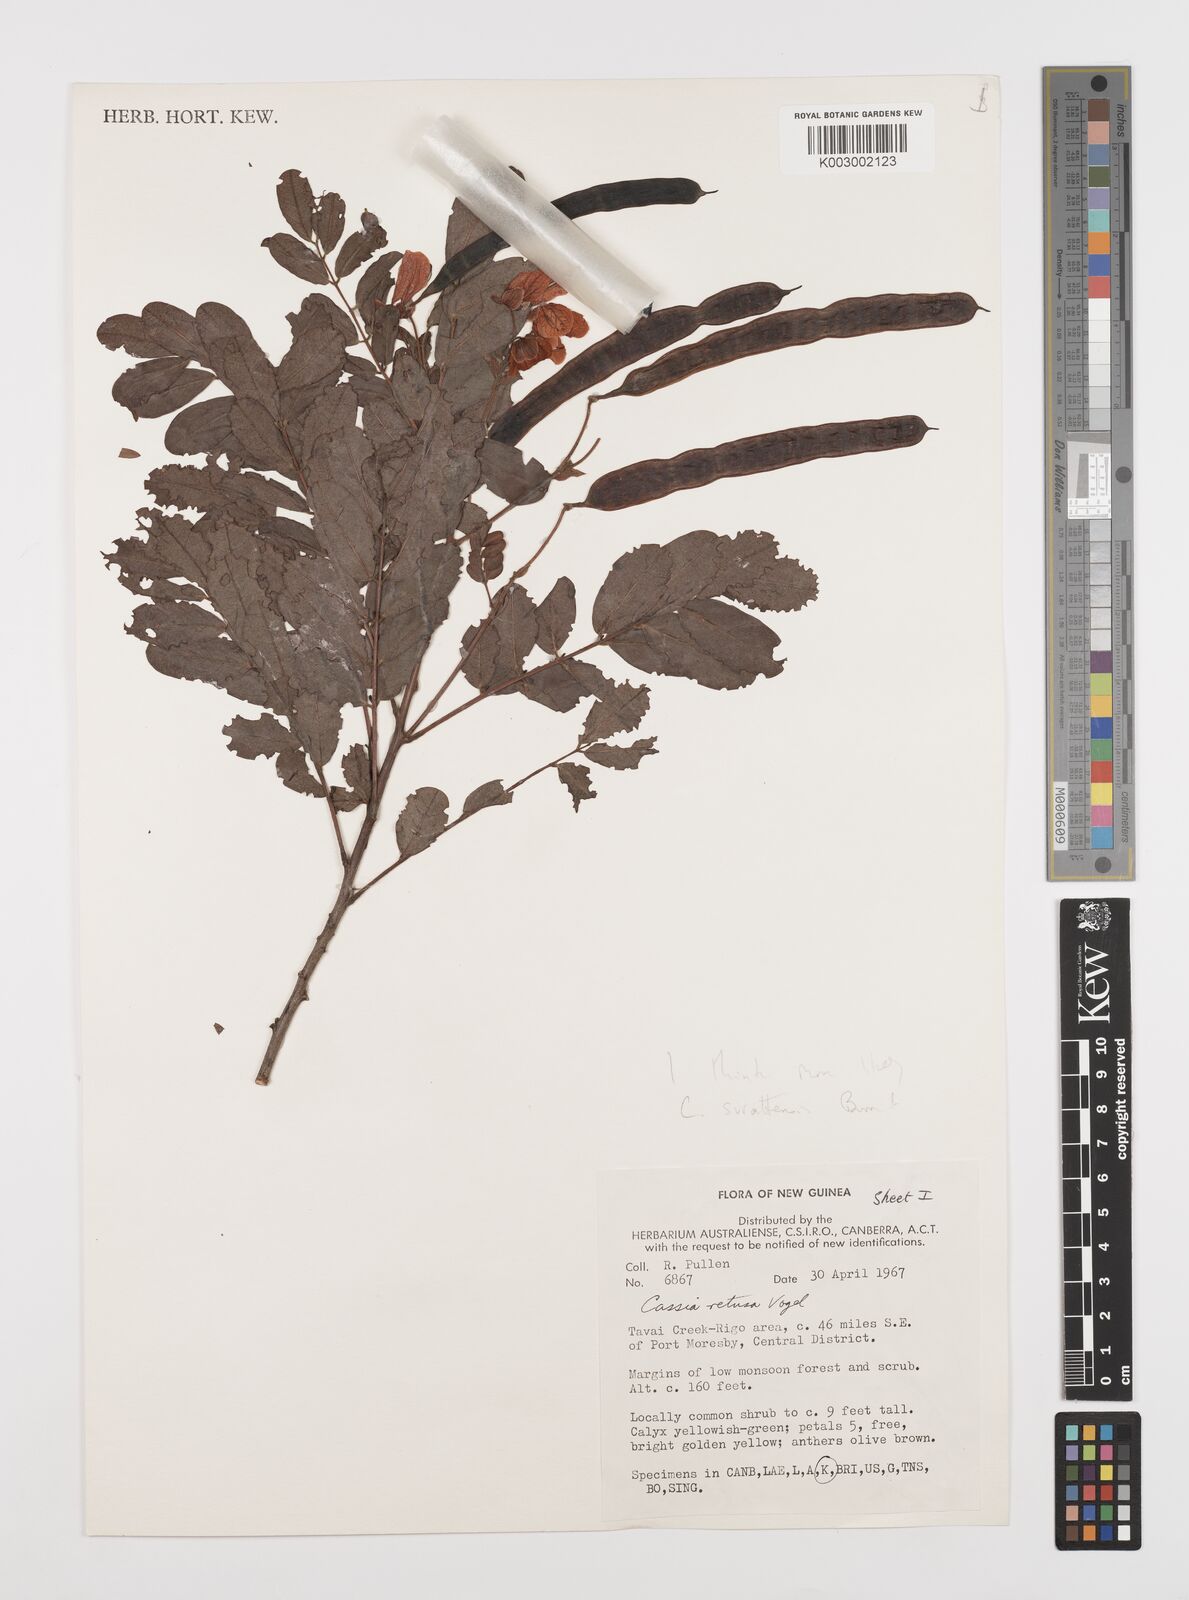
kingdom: Plantae
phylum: Tracheophyta
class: Magnoliopsida
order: Fabales
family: Fabaceae
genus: Senna
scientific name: Senna gaudichaudii
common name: Climbing cassia
